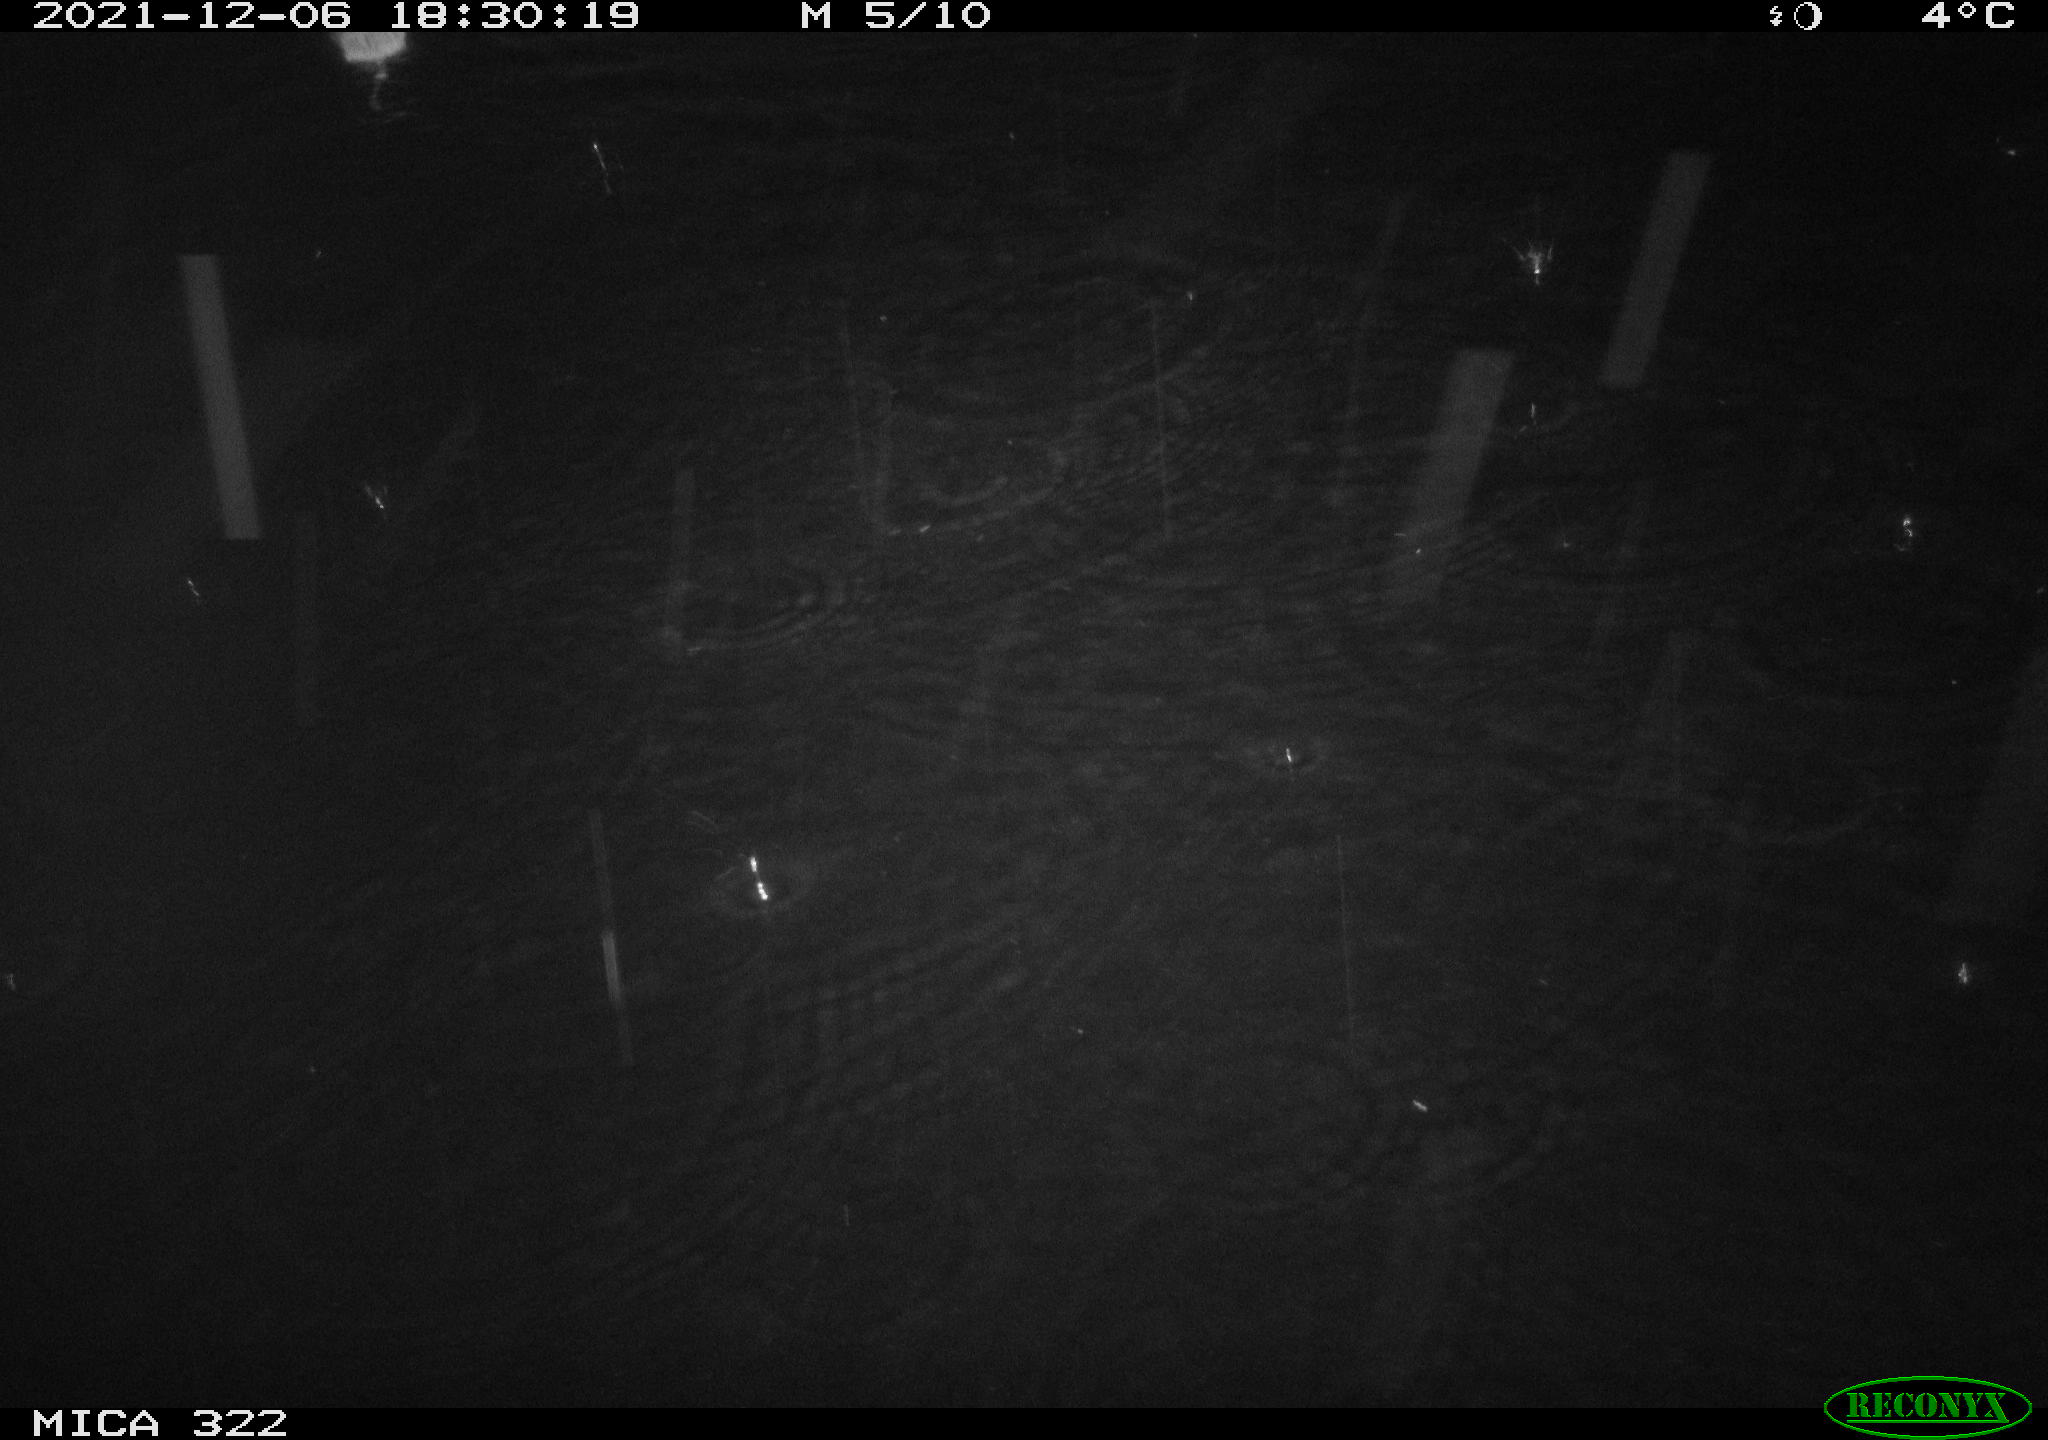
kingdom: Animalia
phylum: Chordata
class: Mammalia
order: Rodentia
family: Muridae
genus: Rattus
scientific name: Rattus norvegicus
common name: Brown rat
